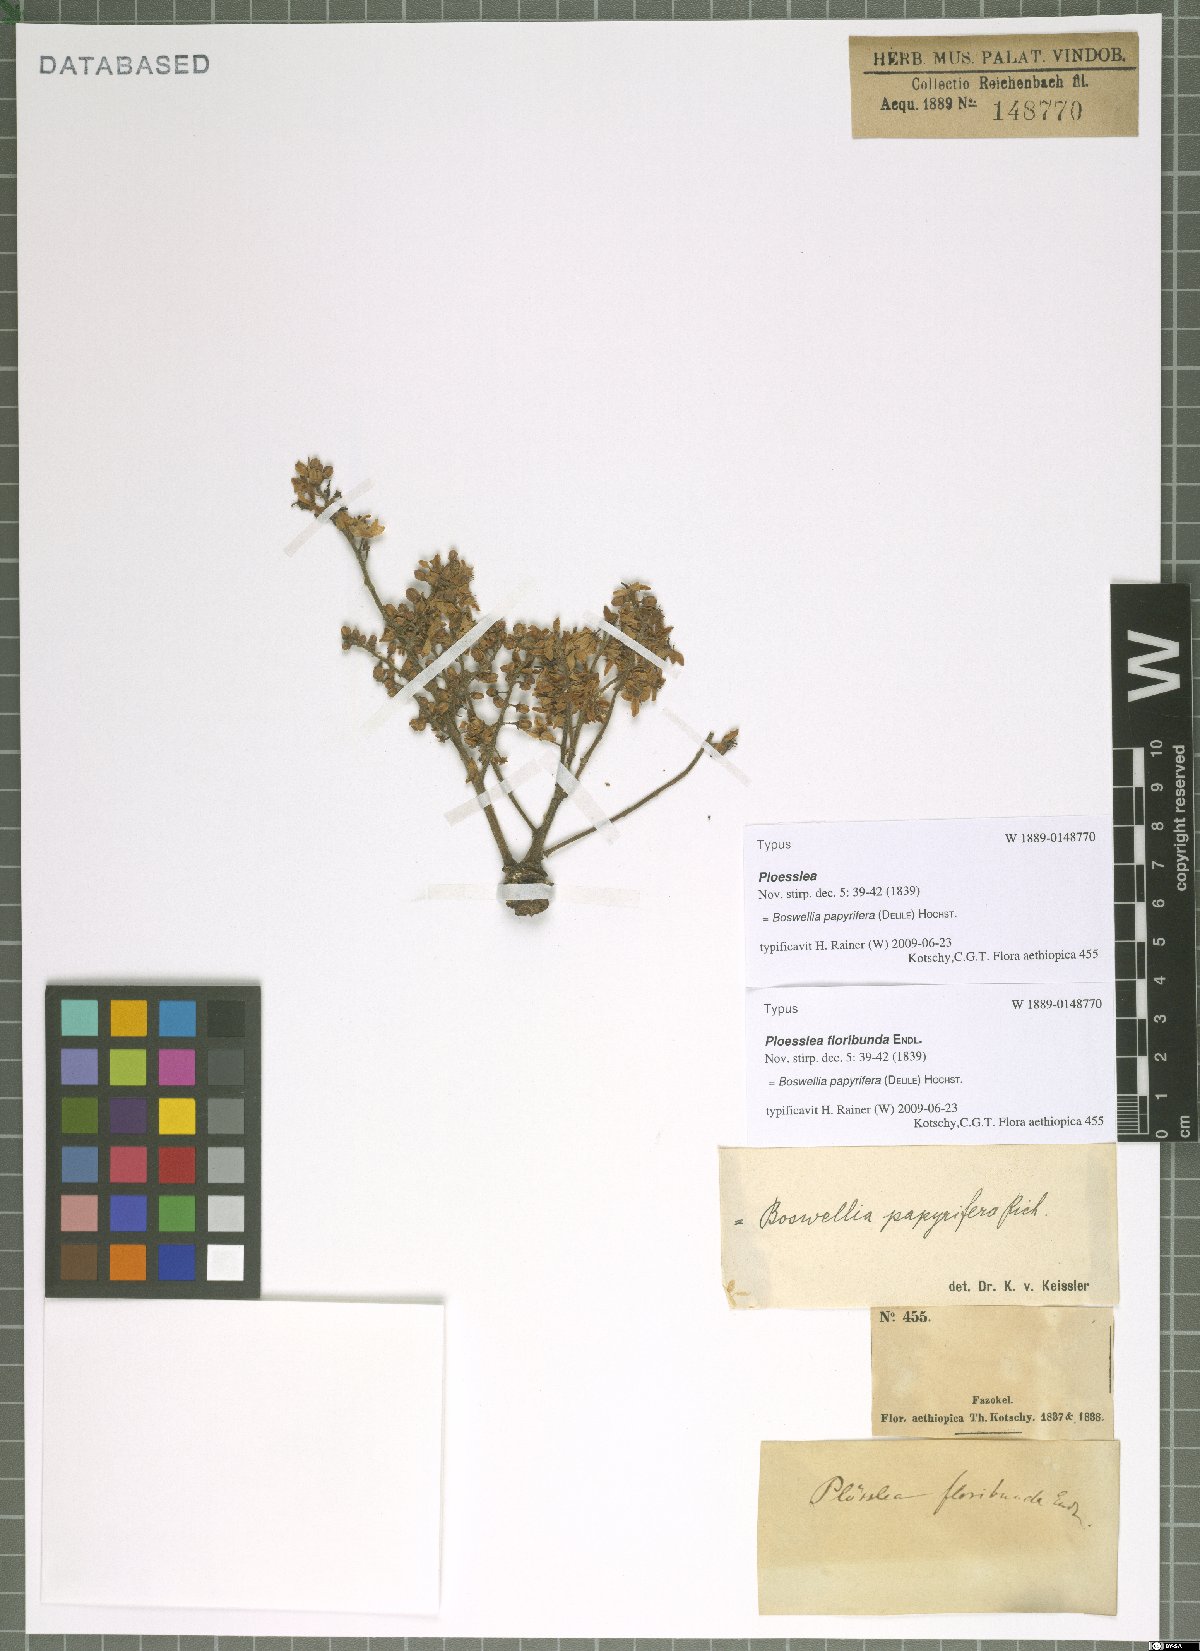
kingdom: Plantae
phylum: Tracheophyta
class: Magnoliopsida
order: Sapindales
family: Burseraceae
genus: Boswellia
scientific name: Boswellia papyrifera
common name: Sudanese frankincense
